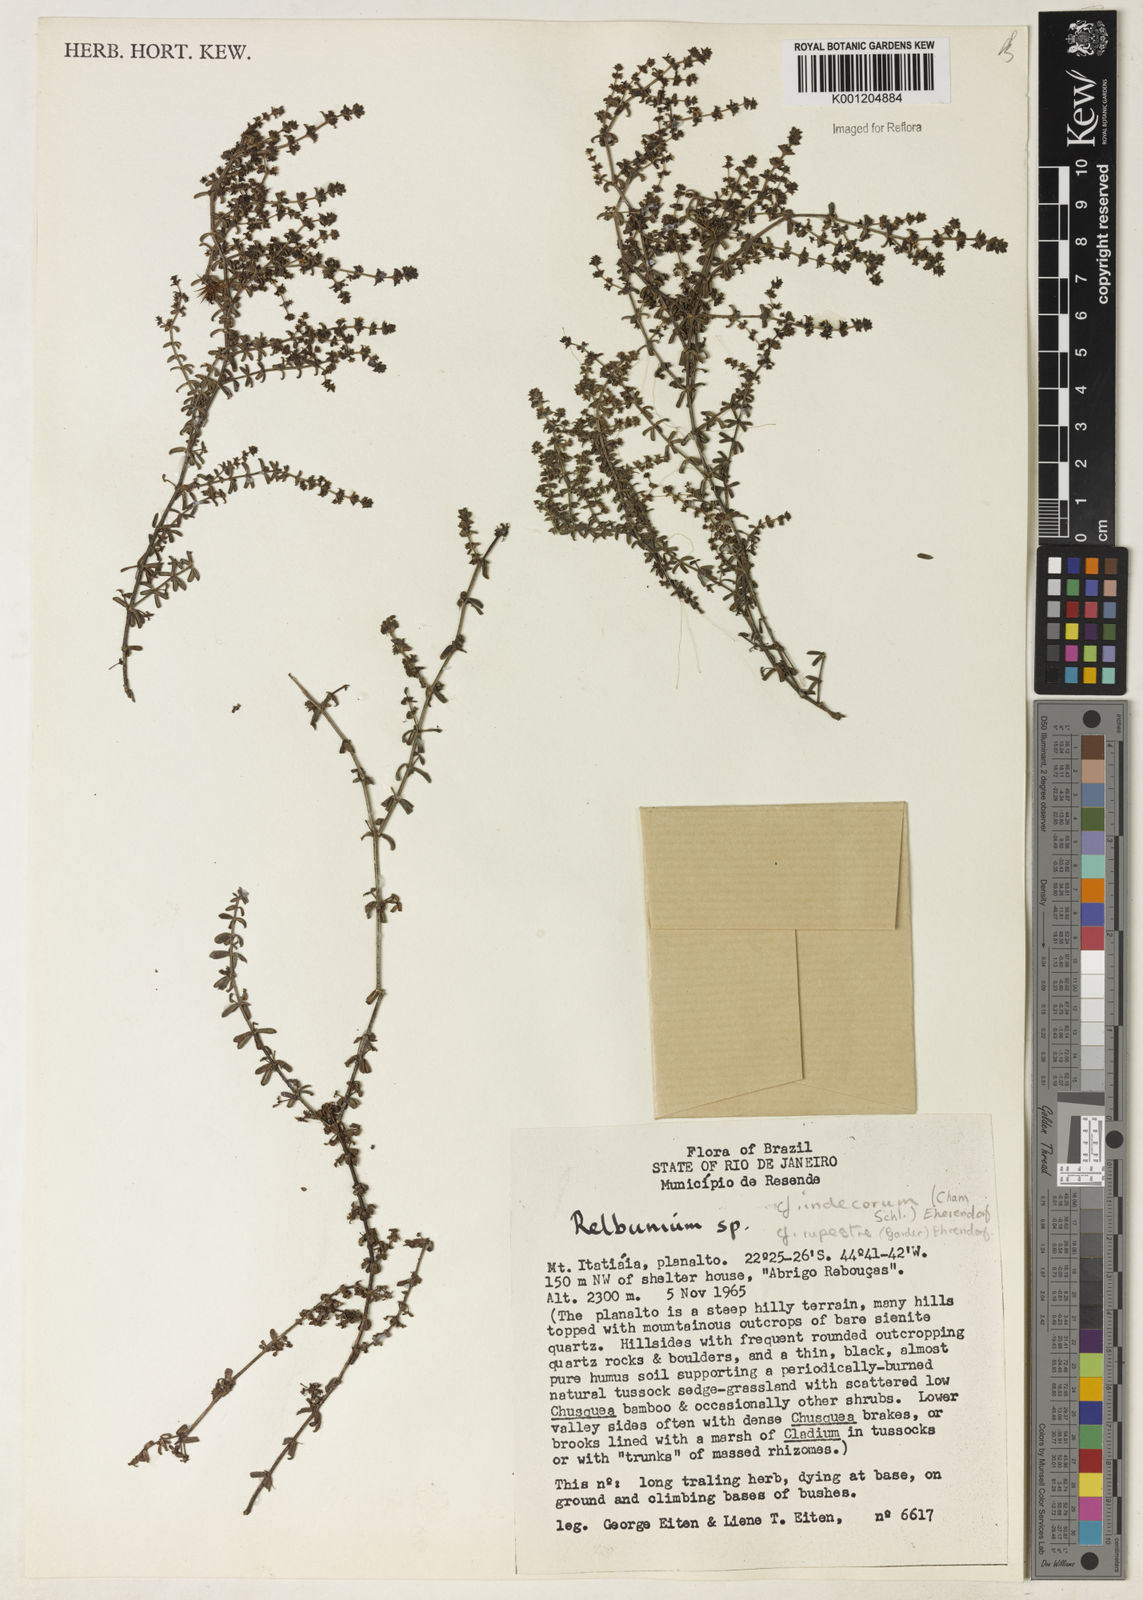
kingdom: Plantae
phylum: Tracheophyta
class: Magnoliopsida
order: Gentianales
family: Rubiaceae
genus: Galium
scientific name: Galium
